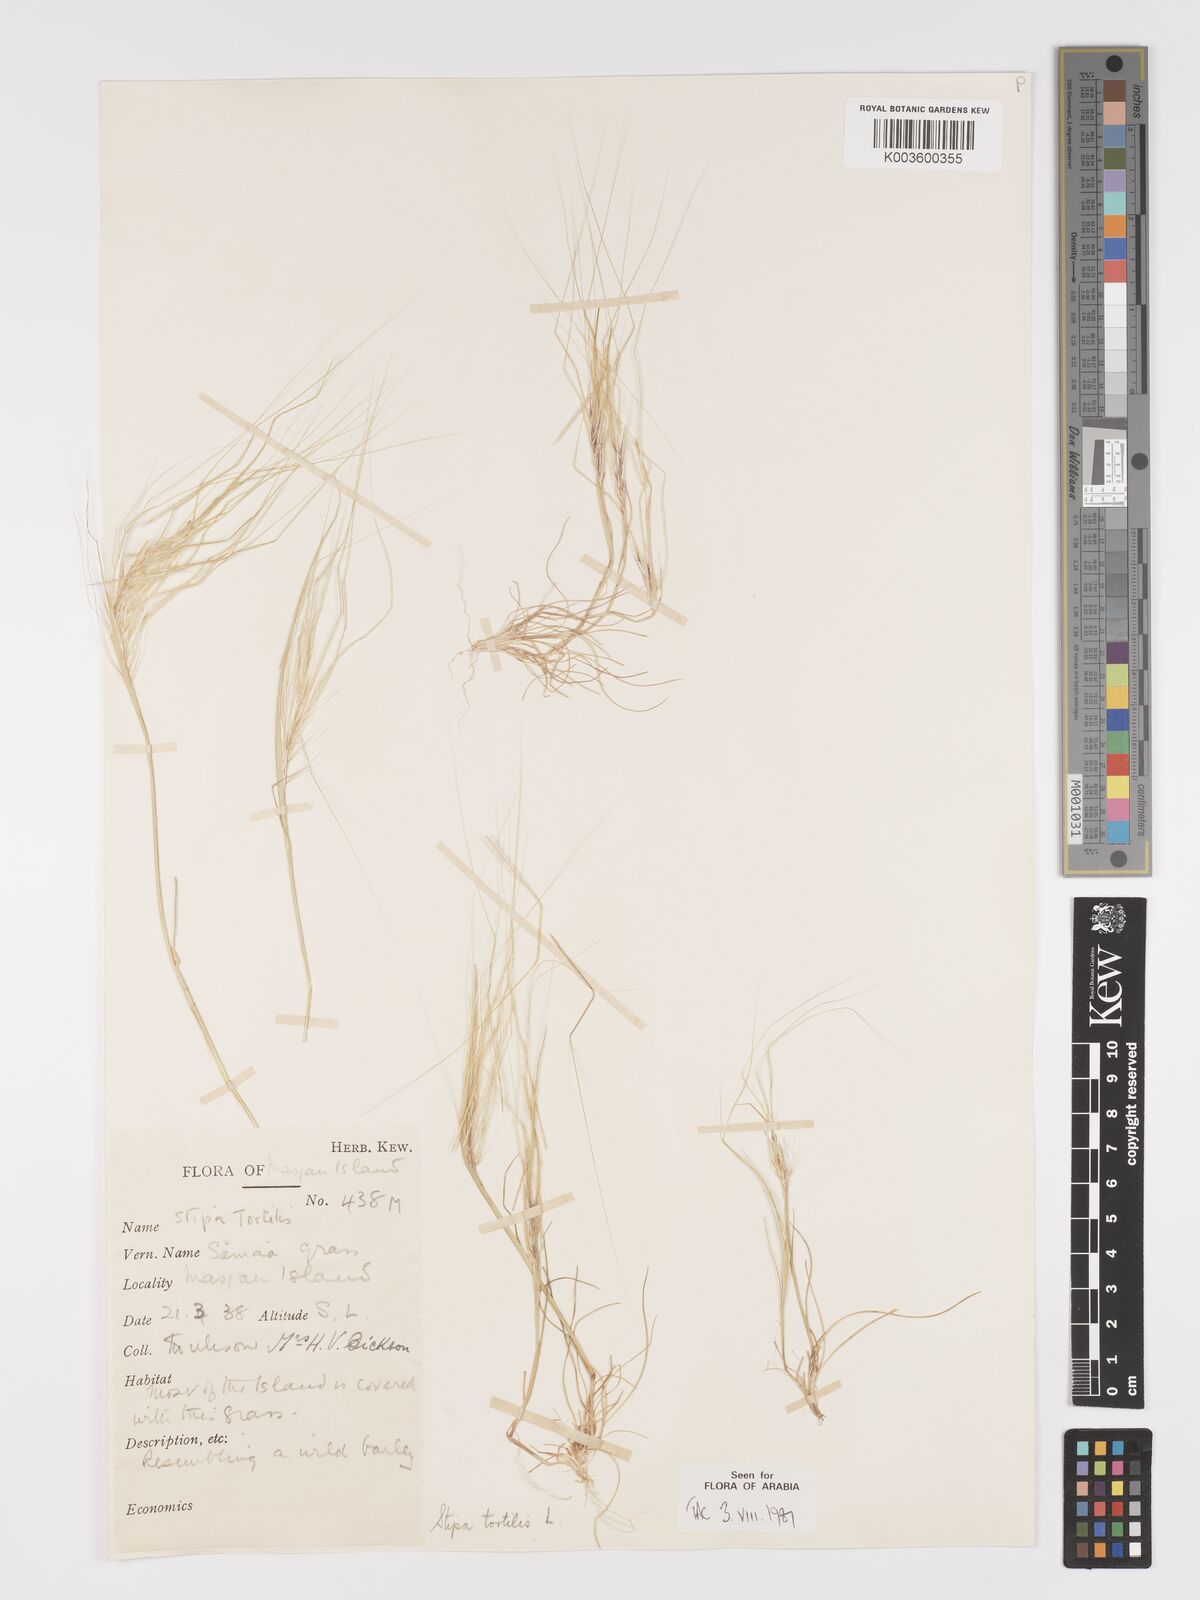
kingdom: Plantae
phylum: Tracheophyta
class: Liliopsida
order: Poales
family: Poaceae
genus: Stipellula
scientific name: Stipellula capensis
